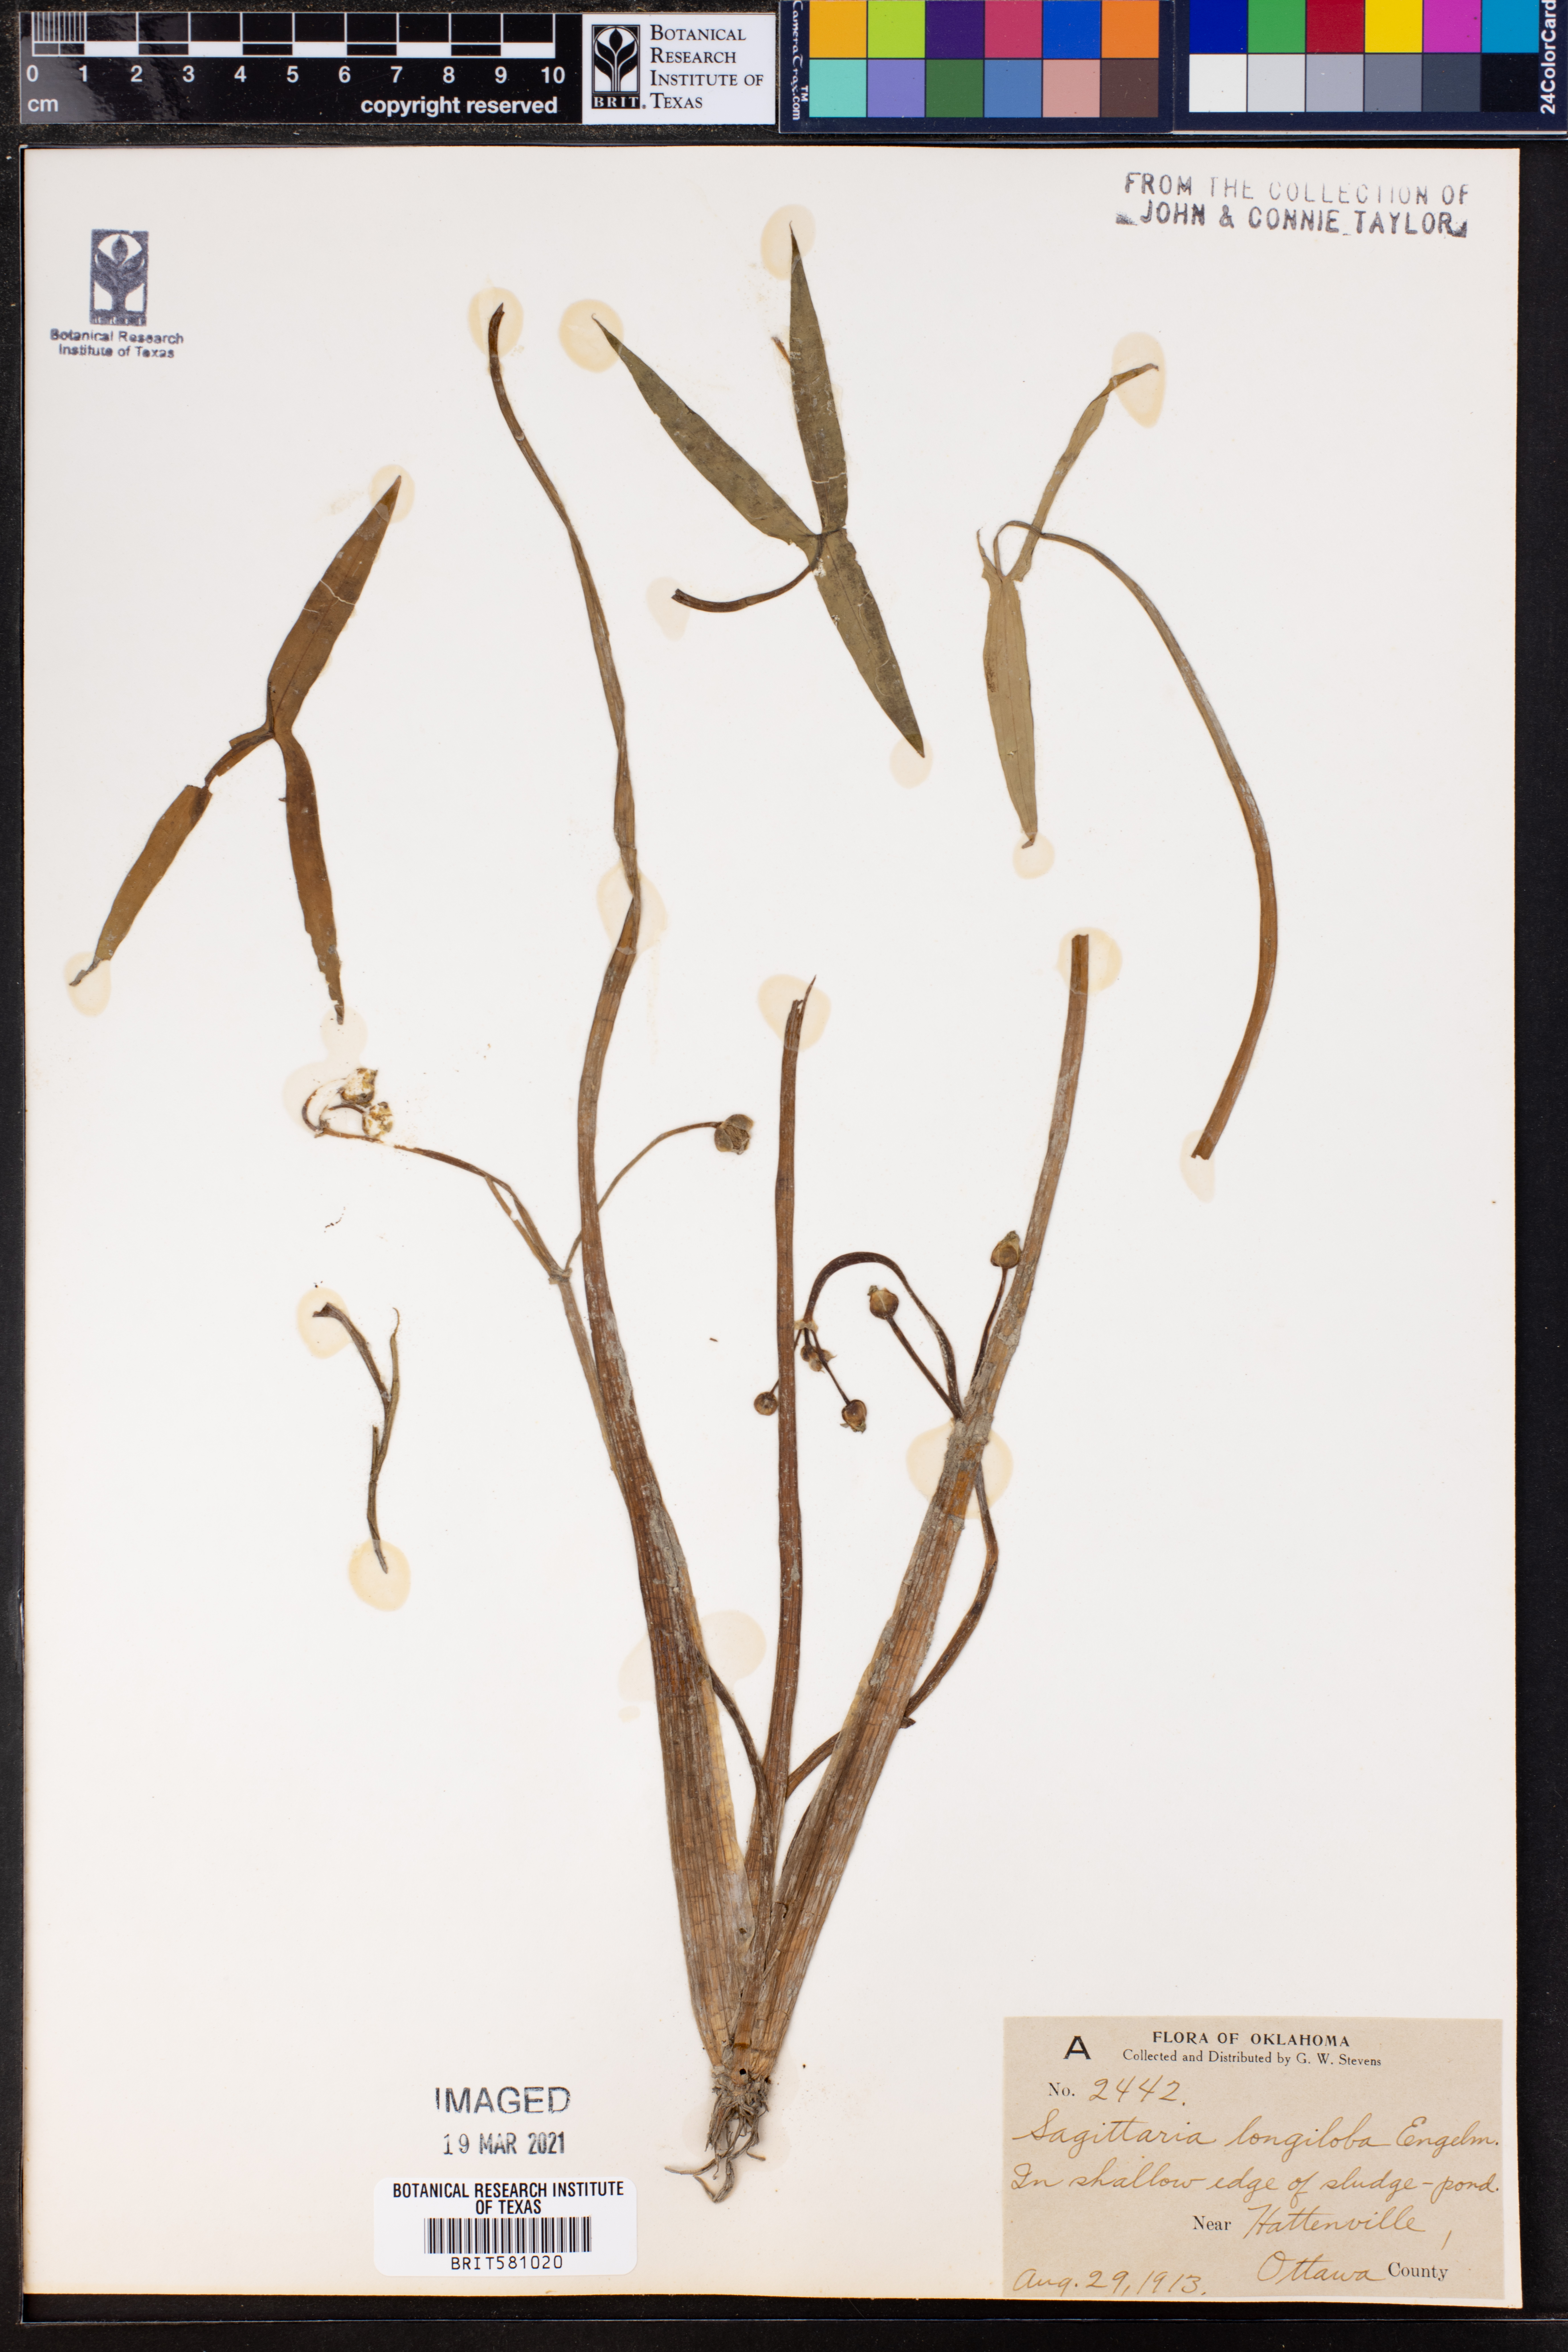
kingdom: Plantae
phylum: Tracheophyta
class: Liliopsida
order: Alismatales
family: Alismataceae
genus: Sagittaria
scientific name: Sagittaria longiloba
